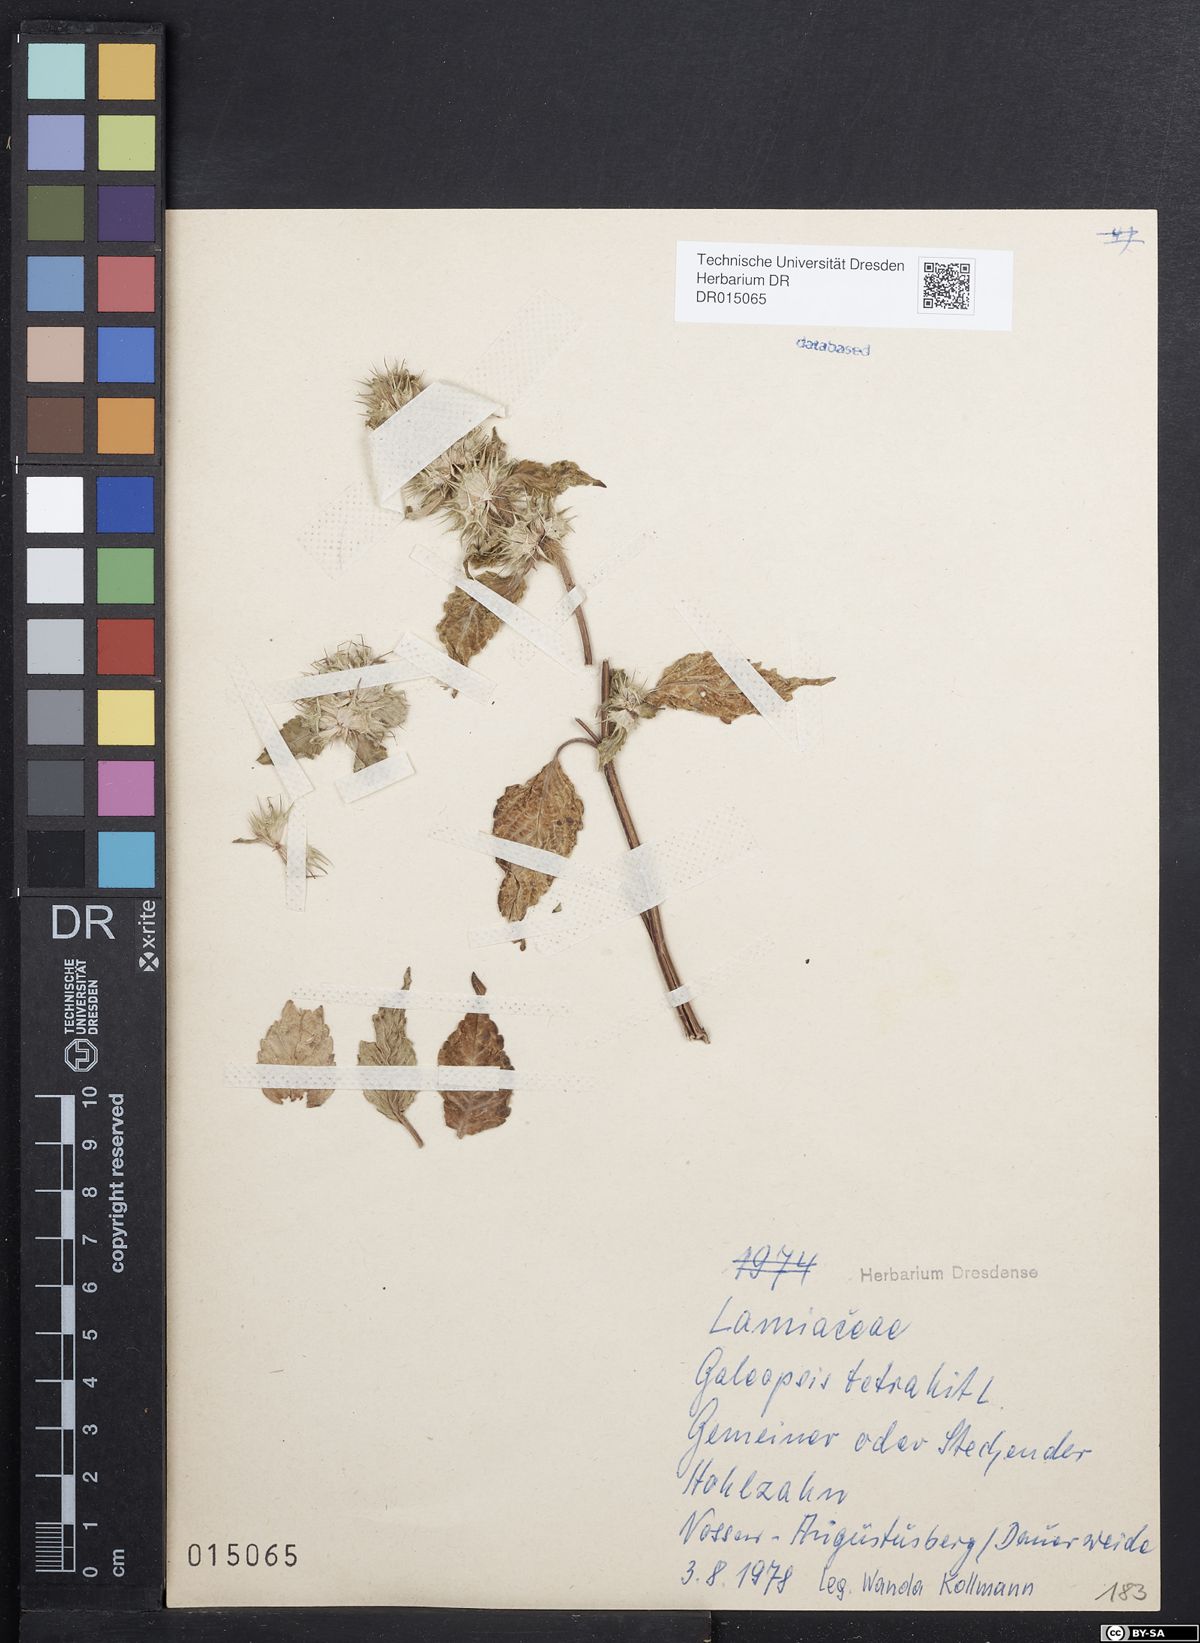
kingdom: Plantae
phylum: Tracheophyta
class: Magnoliopsida
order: Lamiales
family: Lamiaceae
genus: Galeopsis
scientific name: Galeopsis tetrahit
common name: Common hemp-nettle
